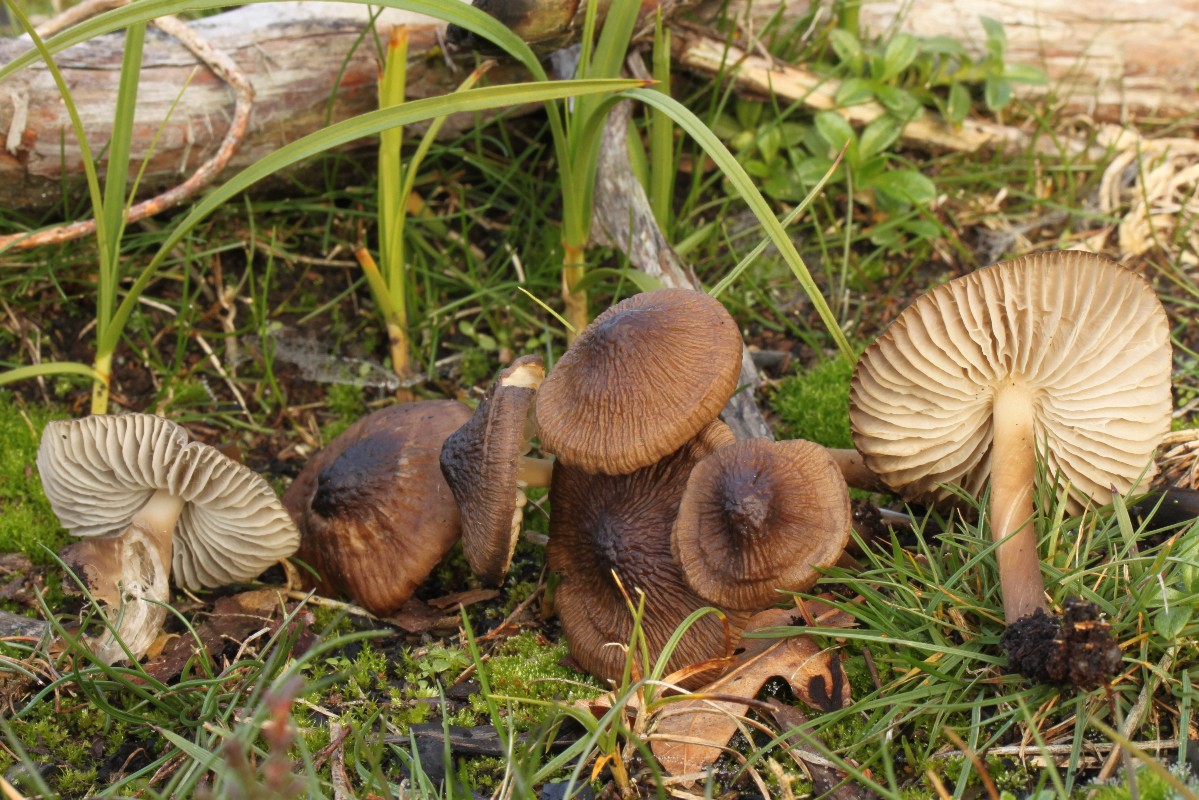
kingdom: Fungi
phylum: Basidiomycota
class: Agaricomycetes
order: Agaricales
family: Mycenaceae
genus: Mycena
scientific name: Mycena galericulata
